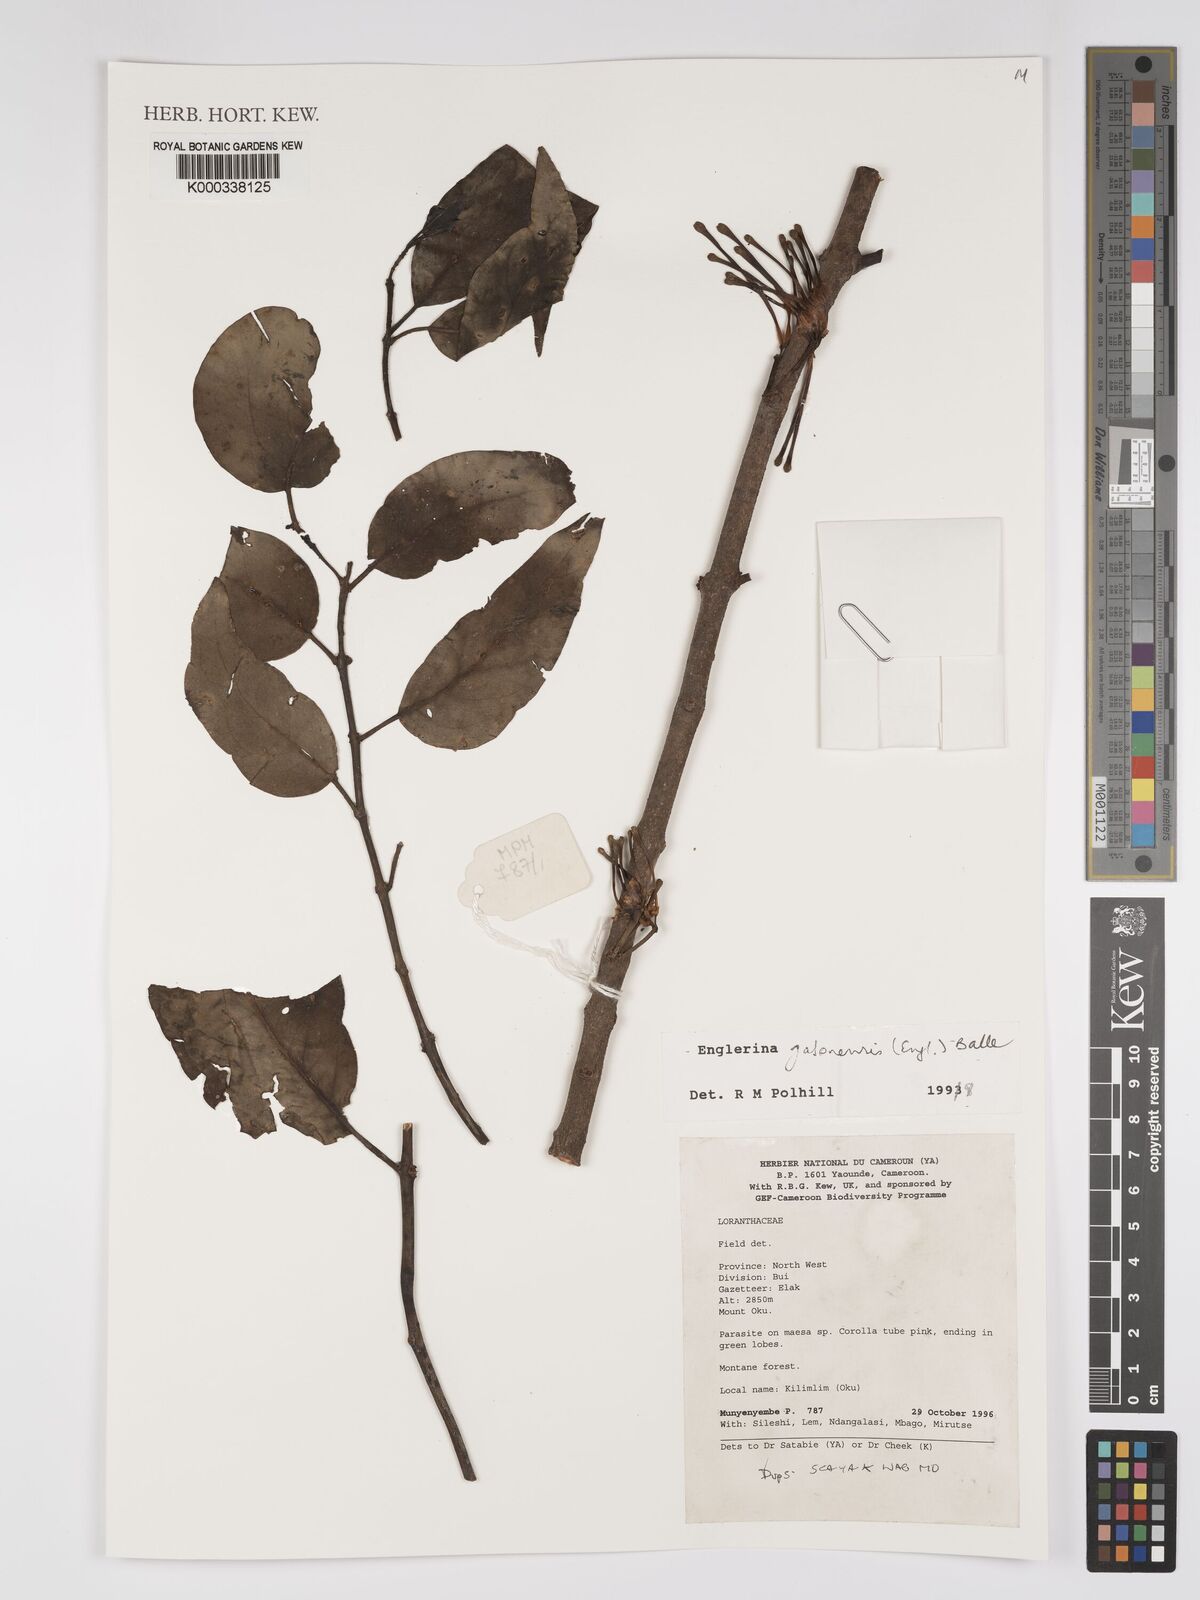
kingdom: Plantae
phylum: Tracheophyta
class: Magnoliopsida
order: Santalales
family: Loranthaceae
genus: Englerina
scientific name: Englerina gabonensis
